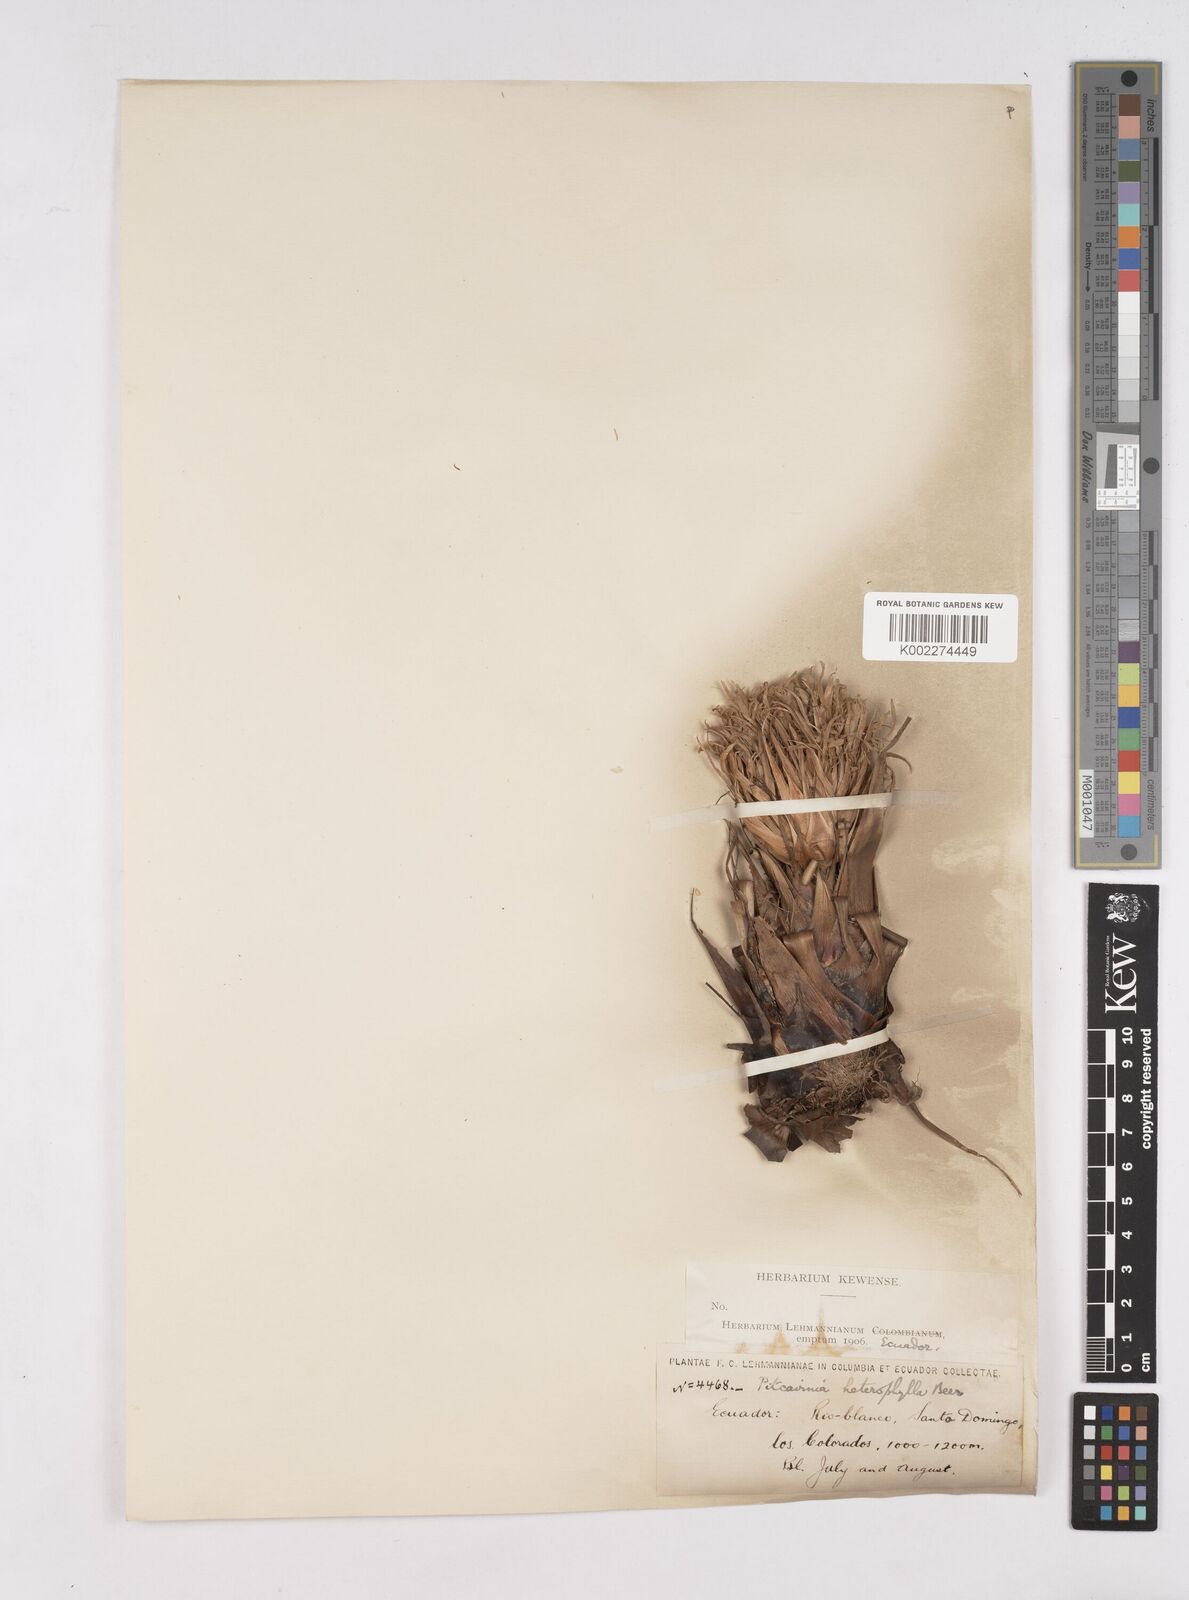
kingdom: Plantae
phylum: Tracheophyta
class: Liliopsida
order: Poales
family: Bromeliaceae
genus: Pitcairnia
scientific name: Pitcairnia heterophylla
